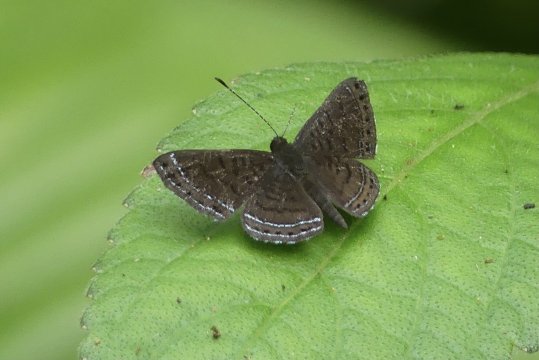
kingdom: Animalia
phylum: Arthropoda
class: Insecta
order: Lepidoptera
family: Riodinidae
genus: Detritivora
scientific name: Detritivora
